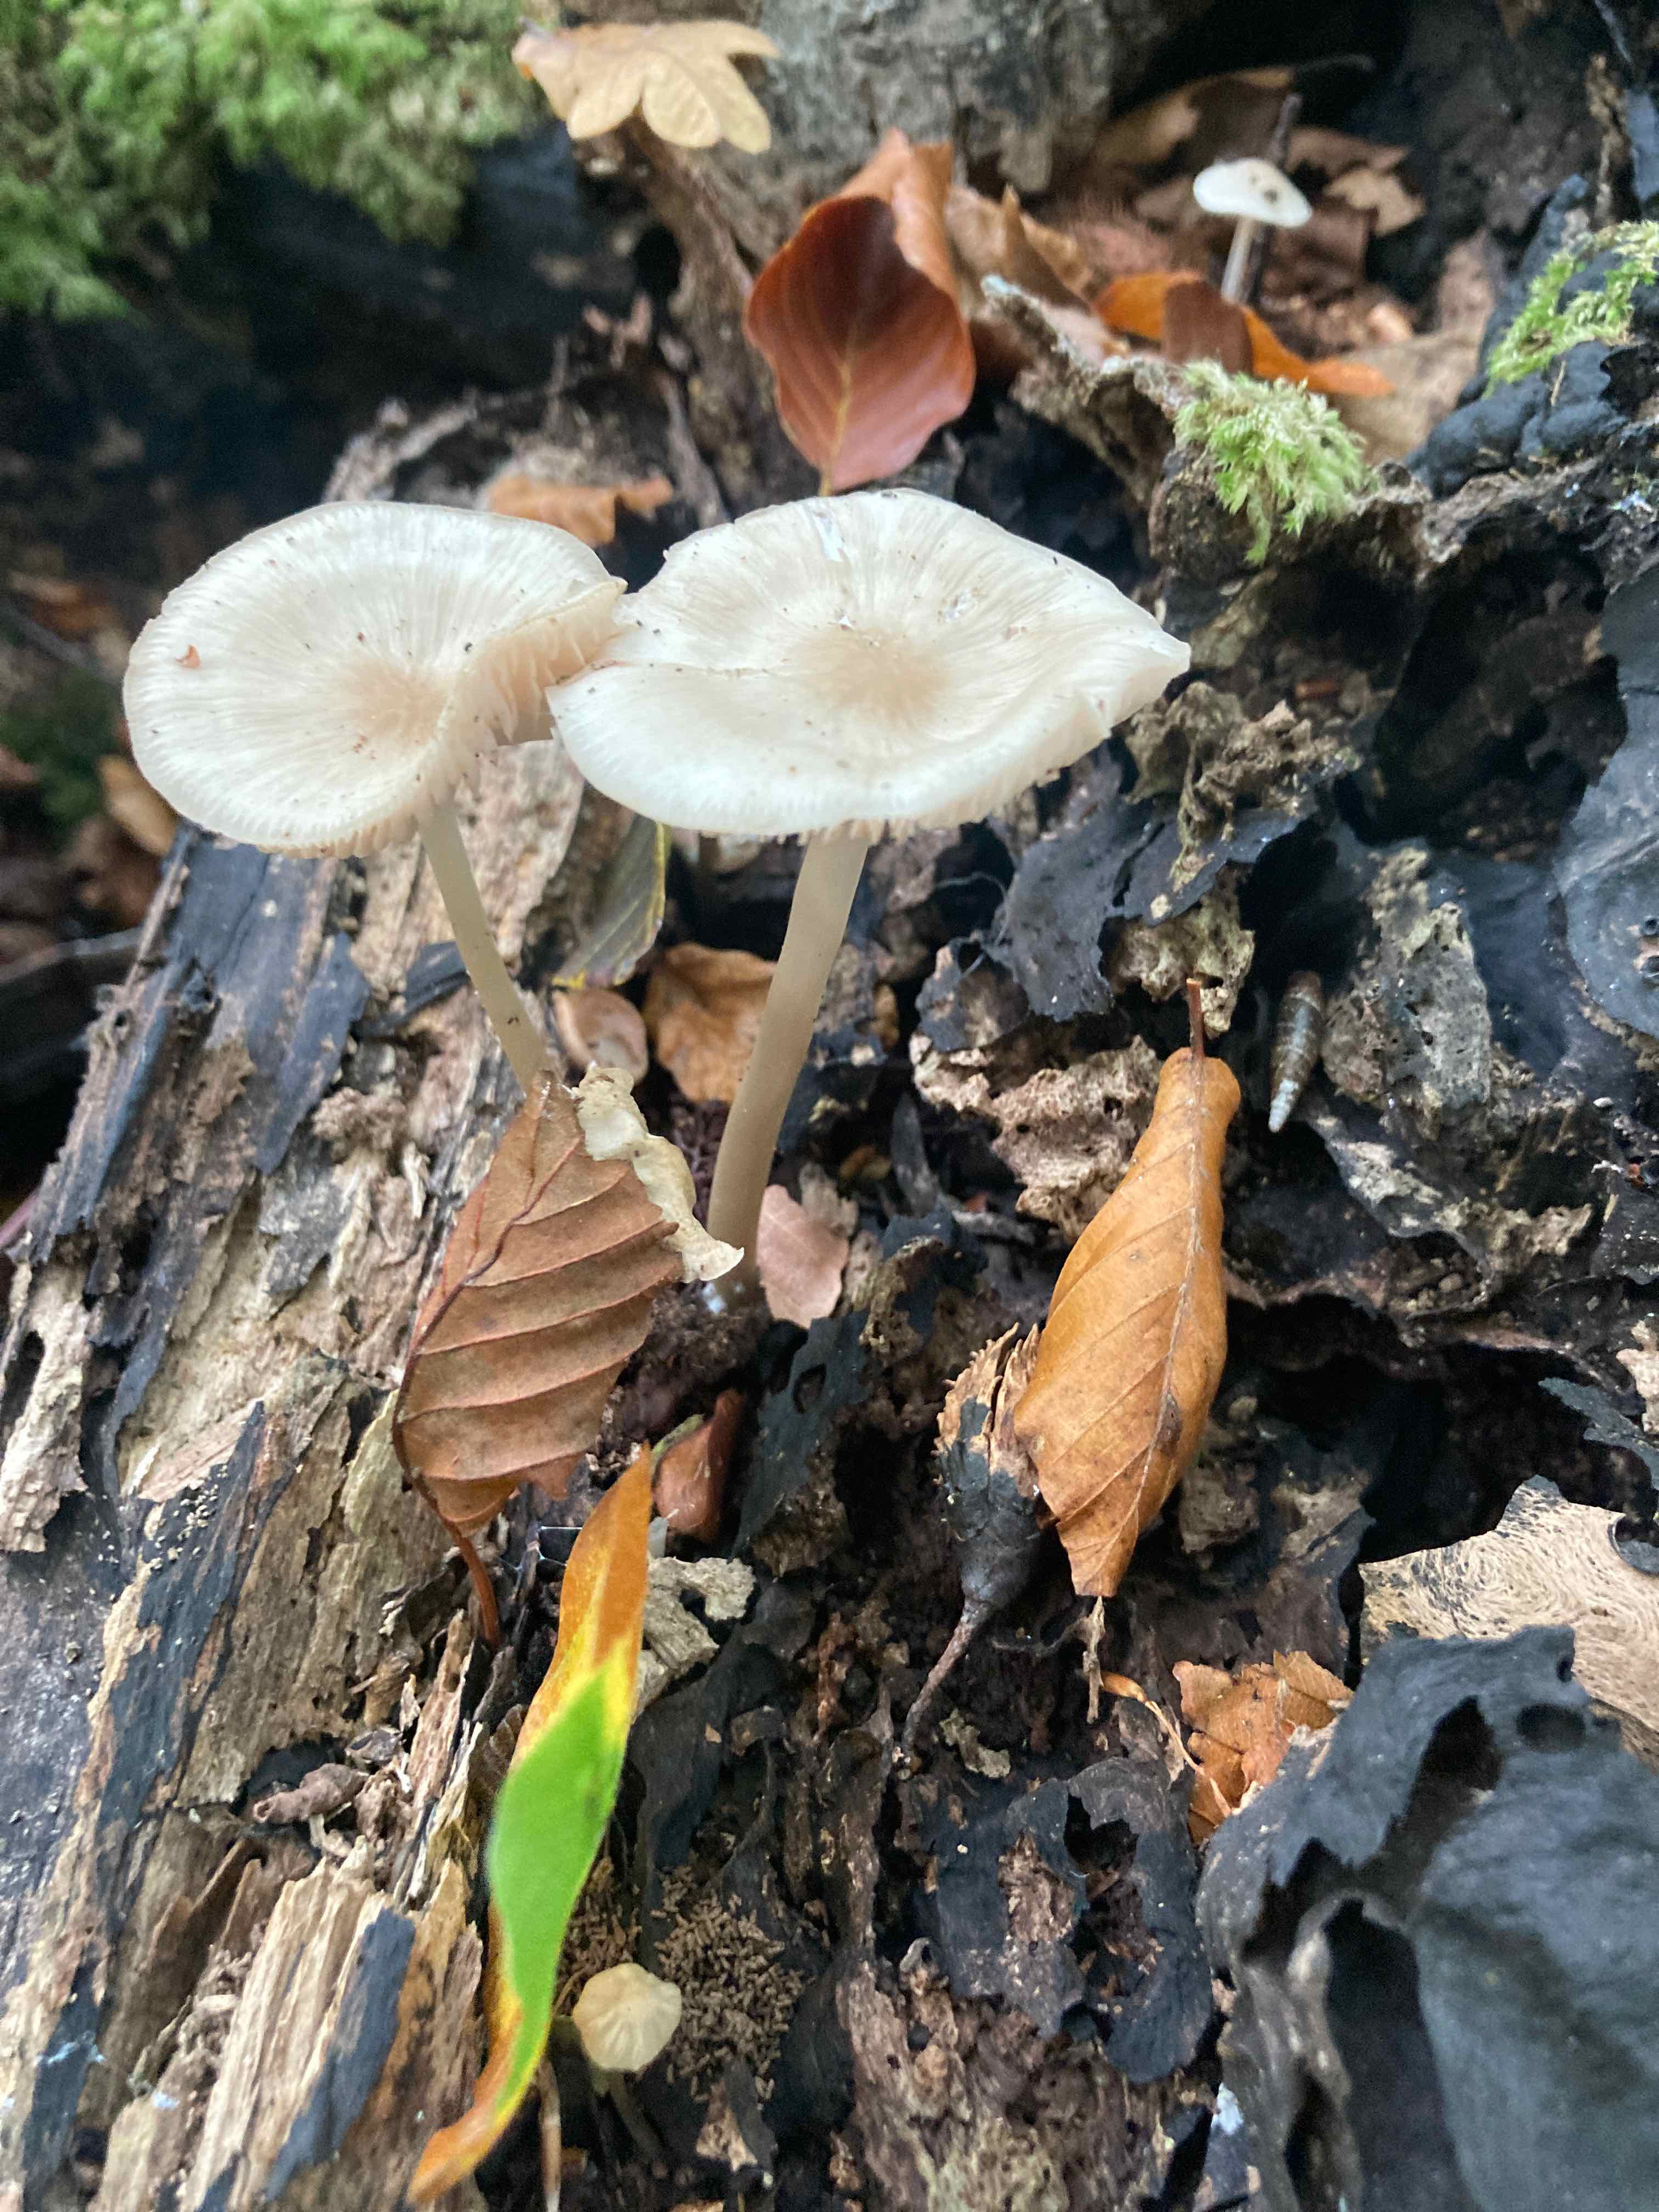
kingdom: Fungi
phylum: Basidiomycota
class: Agaricomycetes
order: Agaricales
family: Mycenaceae
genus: Mycena
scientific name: Mycena galericulata
